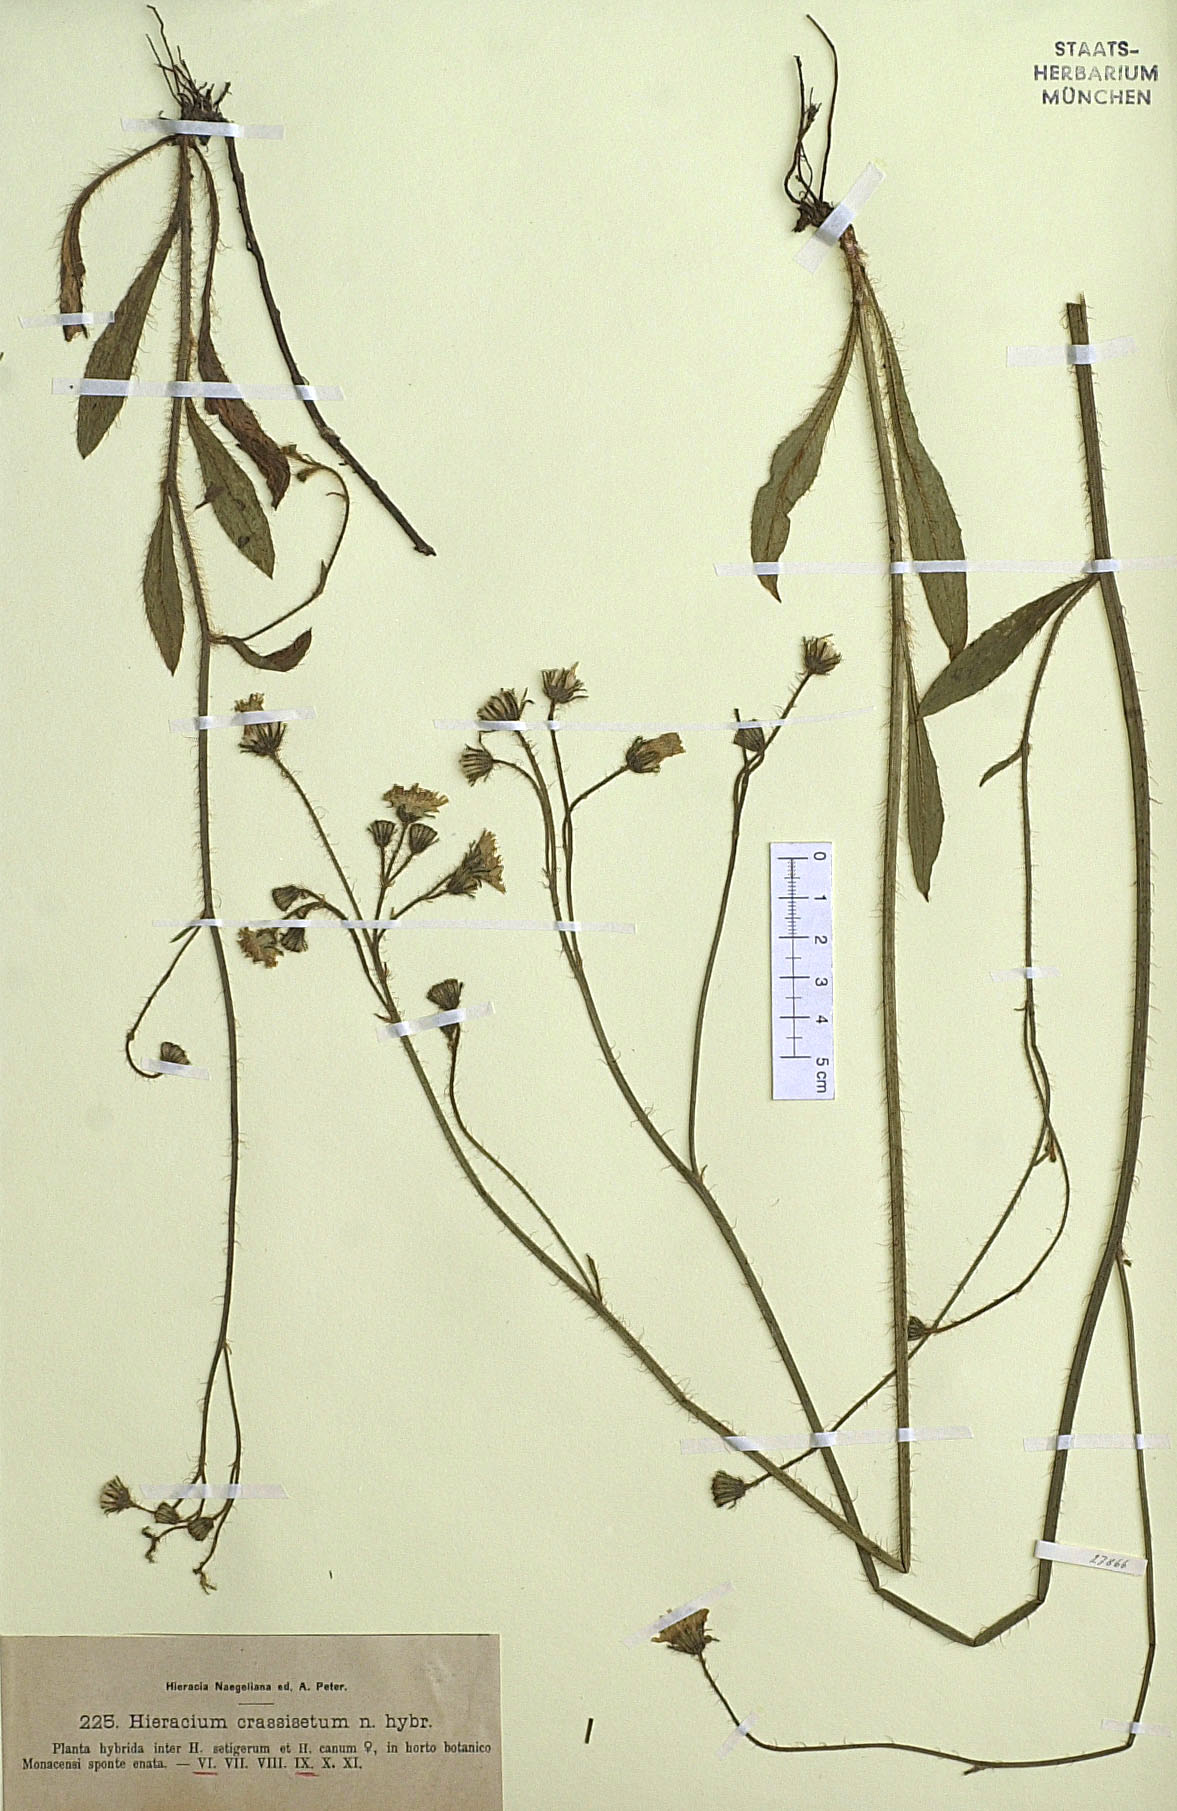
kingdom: Plantae
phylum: Tracheophyta
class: Magnoliopsida
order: Asterales
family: Asteraceae
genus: Pilosella
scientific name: Pilosella crassiseta
